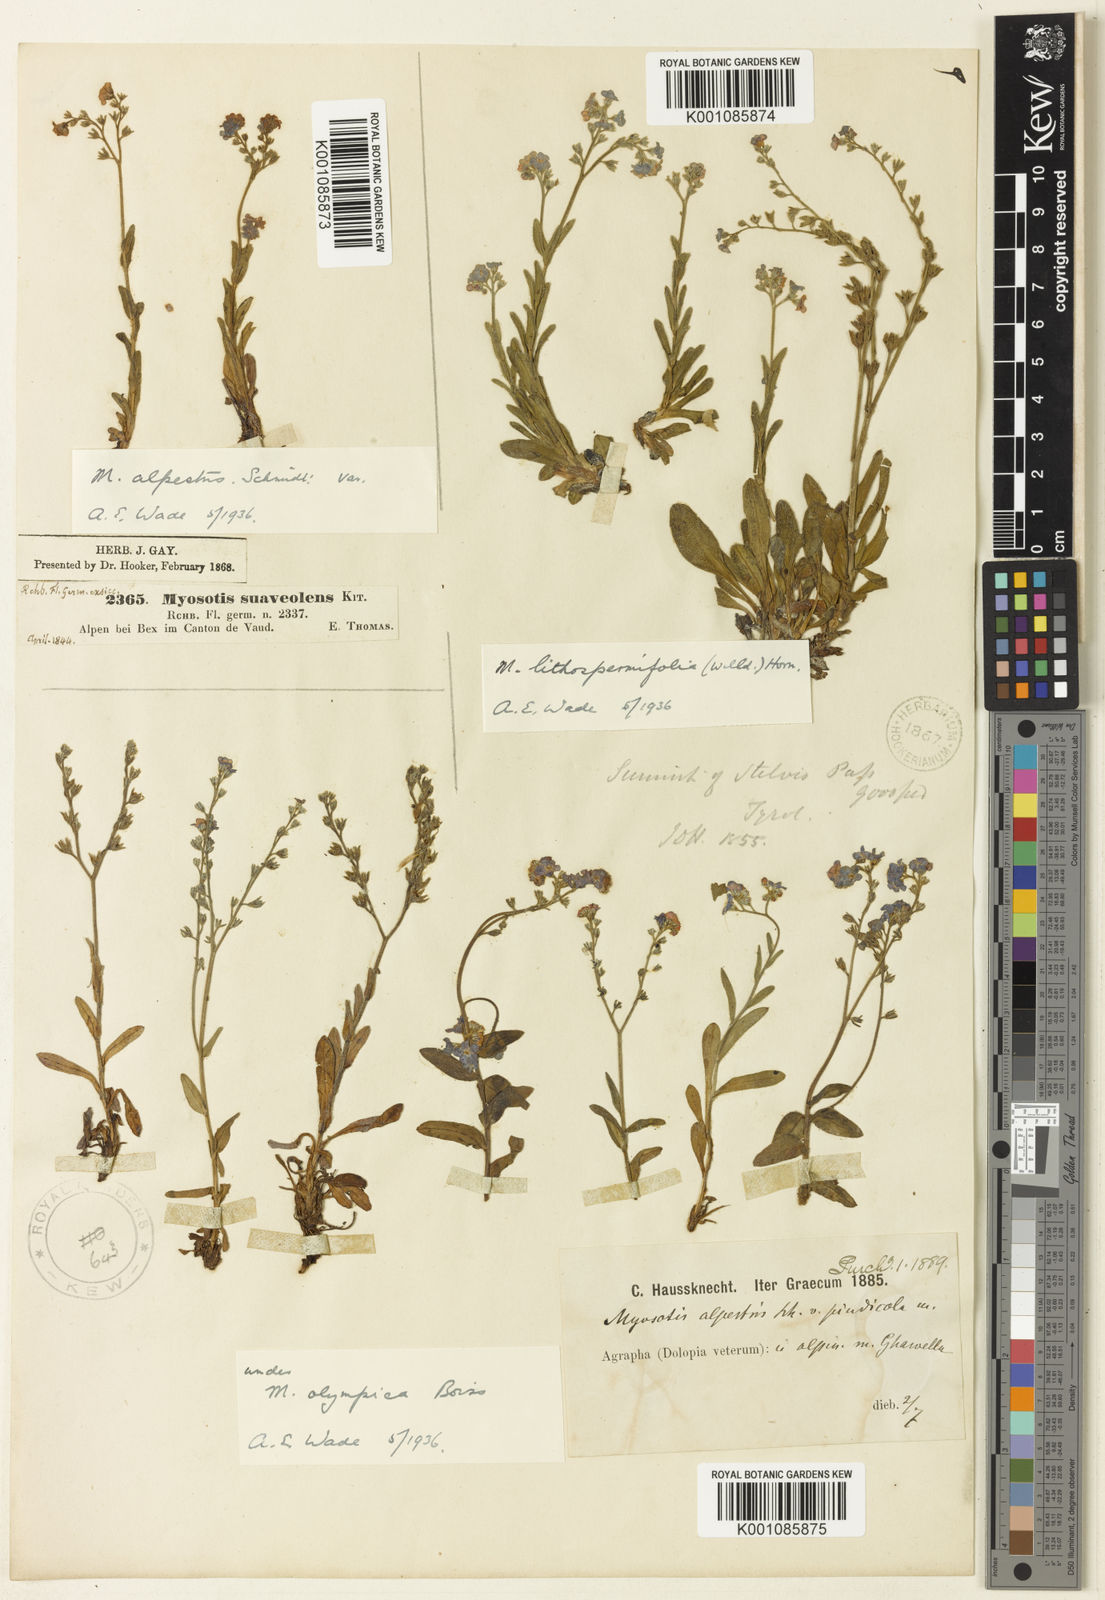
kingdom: Plantae
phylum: Tracheophyta
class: Magnoliopsida
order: Boraginales
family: Boraginaceae
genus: Myosotis
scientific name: Myosotis alpestris
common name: Alpine forget-me-not
